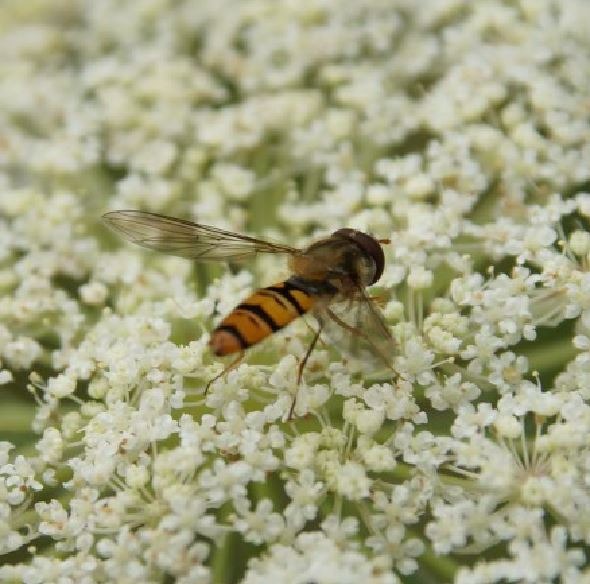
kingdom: Animalia
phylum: Arthropoda
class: Insecta
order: Diptera
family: Syrphidae
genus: Episyrphus
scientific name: Episyrphus balteatus
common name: Dobbeltbåndet svirreflue
